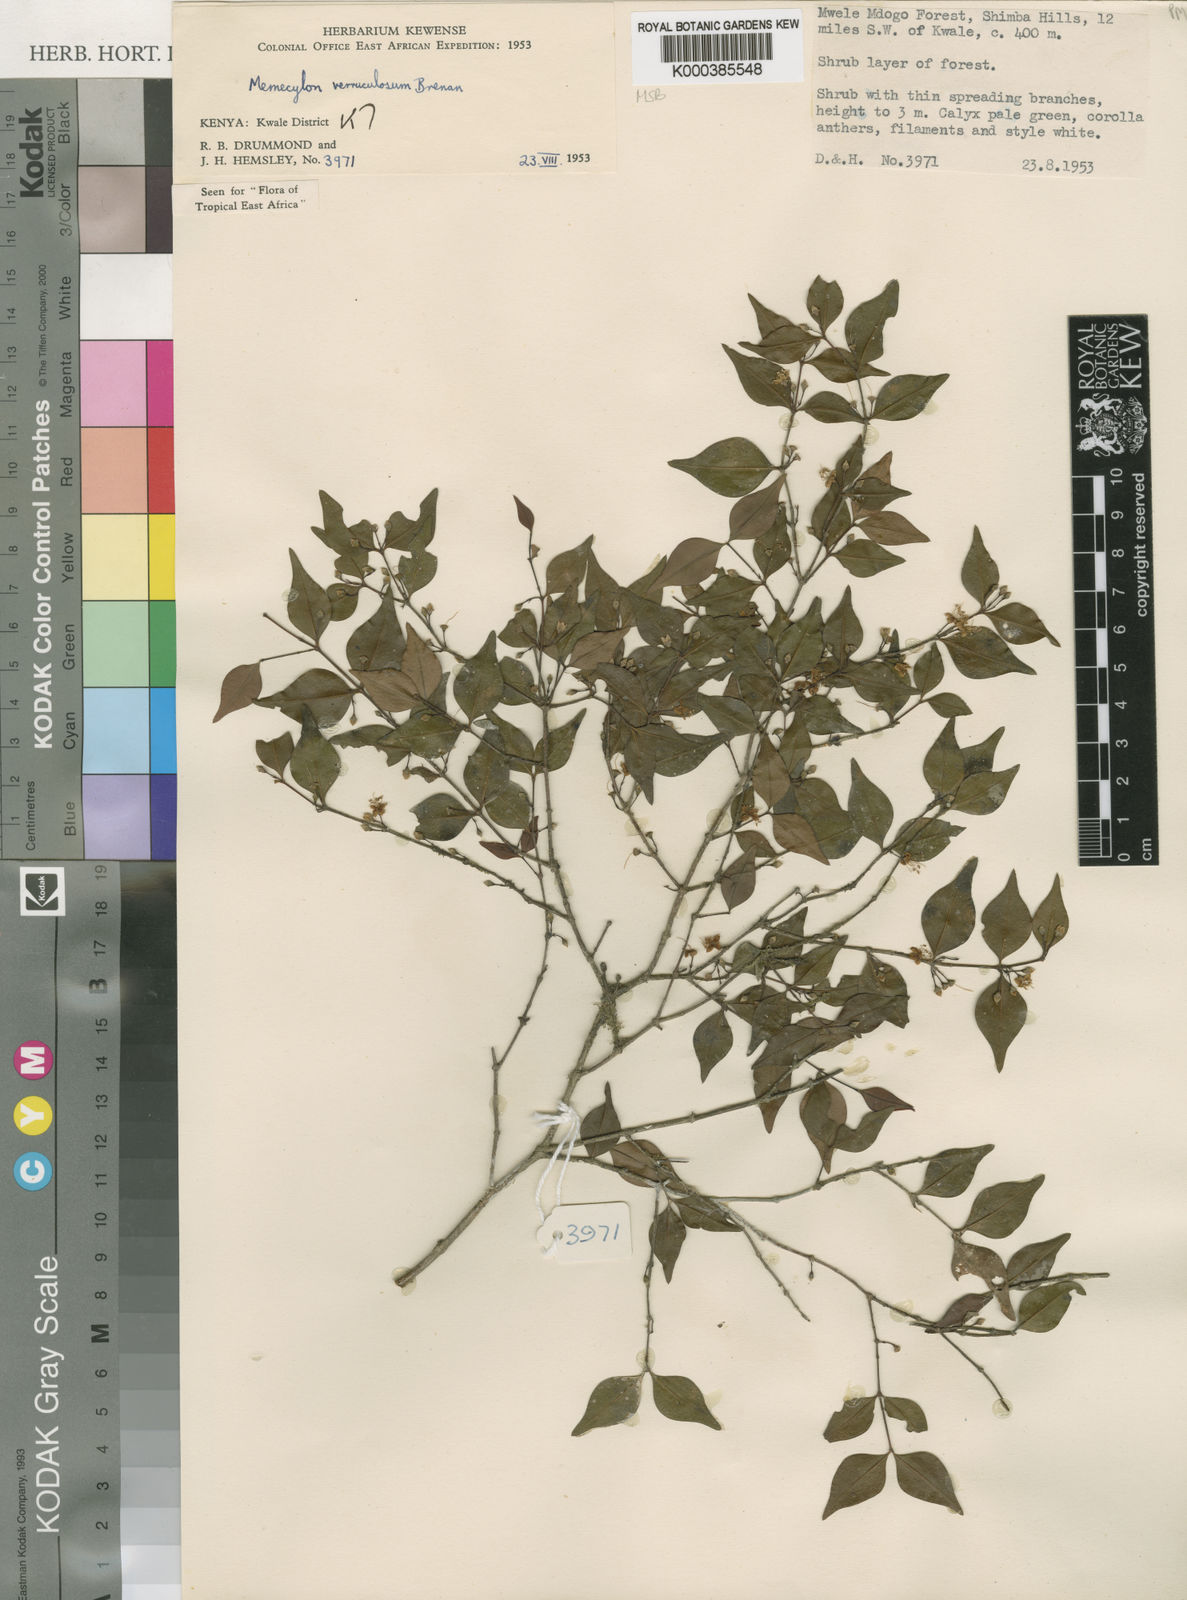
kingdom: Plantae
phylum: Tracheophyta
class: Magnoliopsida
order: Myrtales
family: Melastomataceae
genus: Memecylon
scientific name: Memecylon verruculosum
